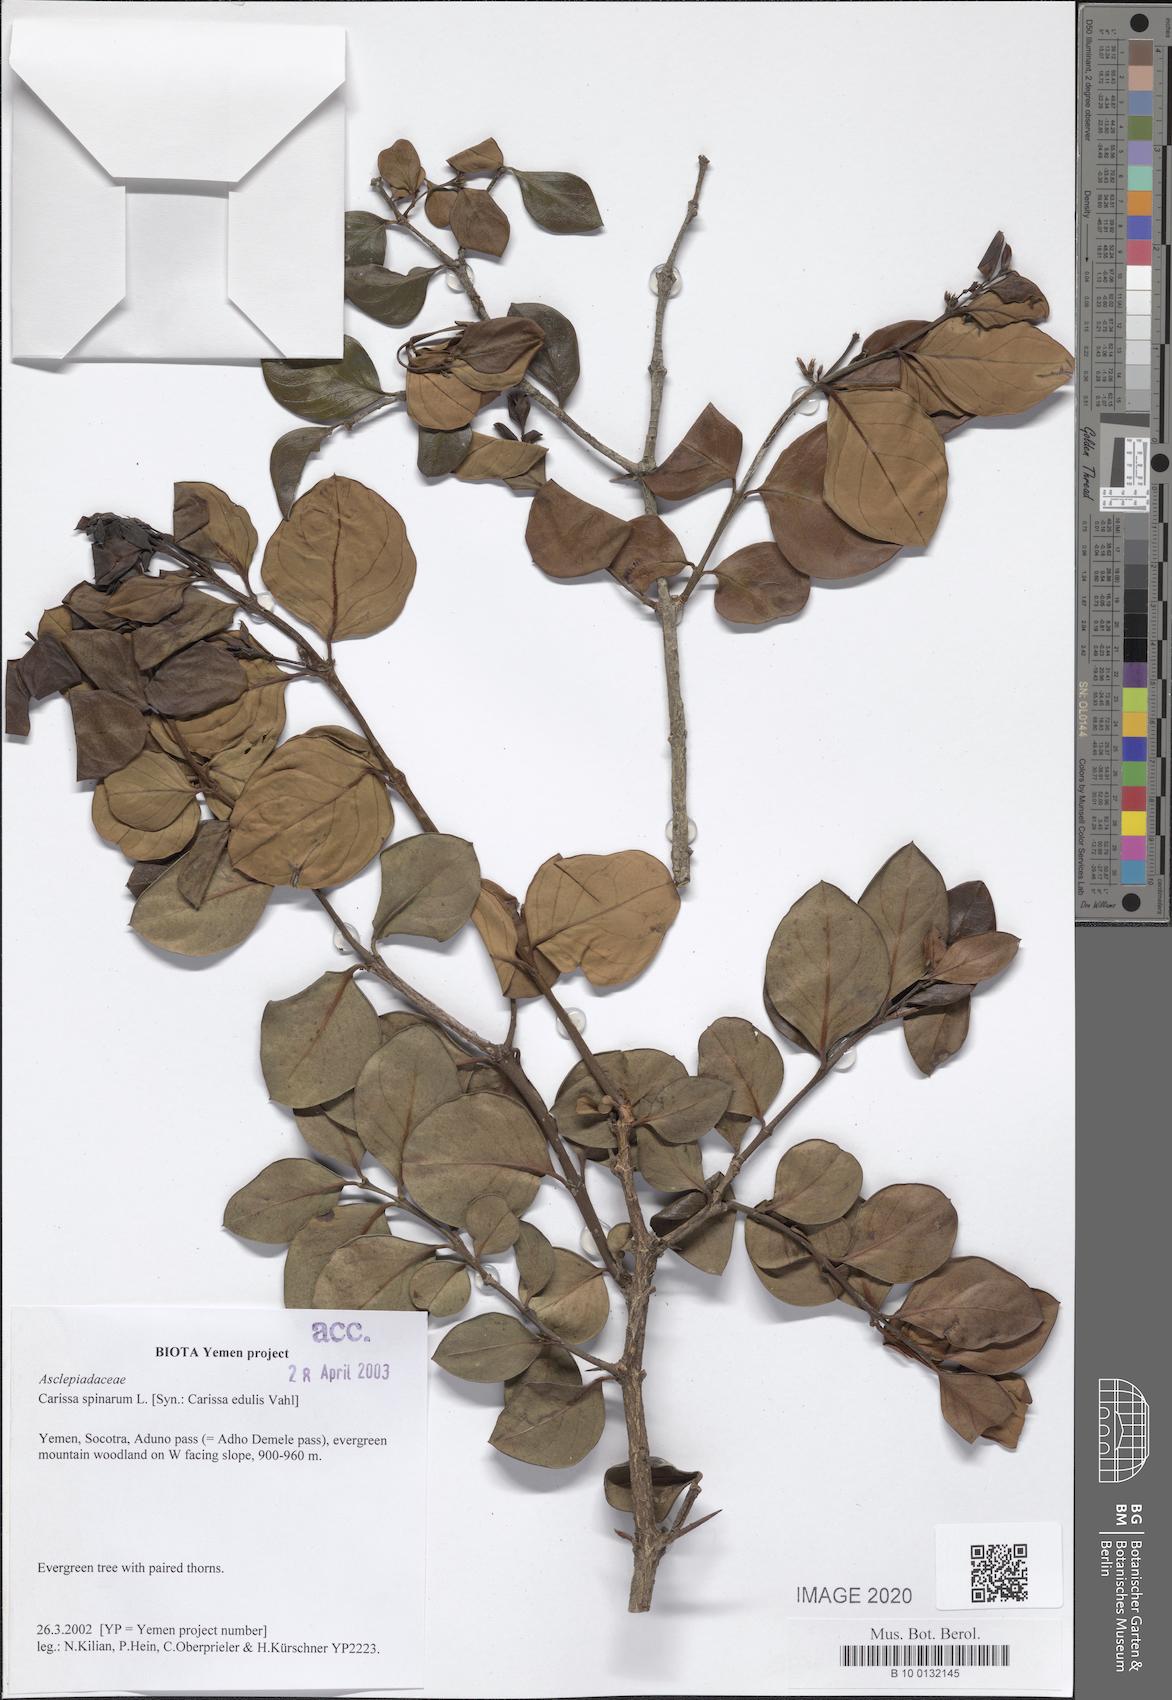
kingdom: Plantae
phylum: Tracheophyta
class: Magnoliopsida
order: Gentianales
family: Apocynaceae
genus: Carissa
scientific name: Carissa spinarum
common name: Egyptian carissa
